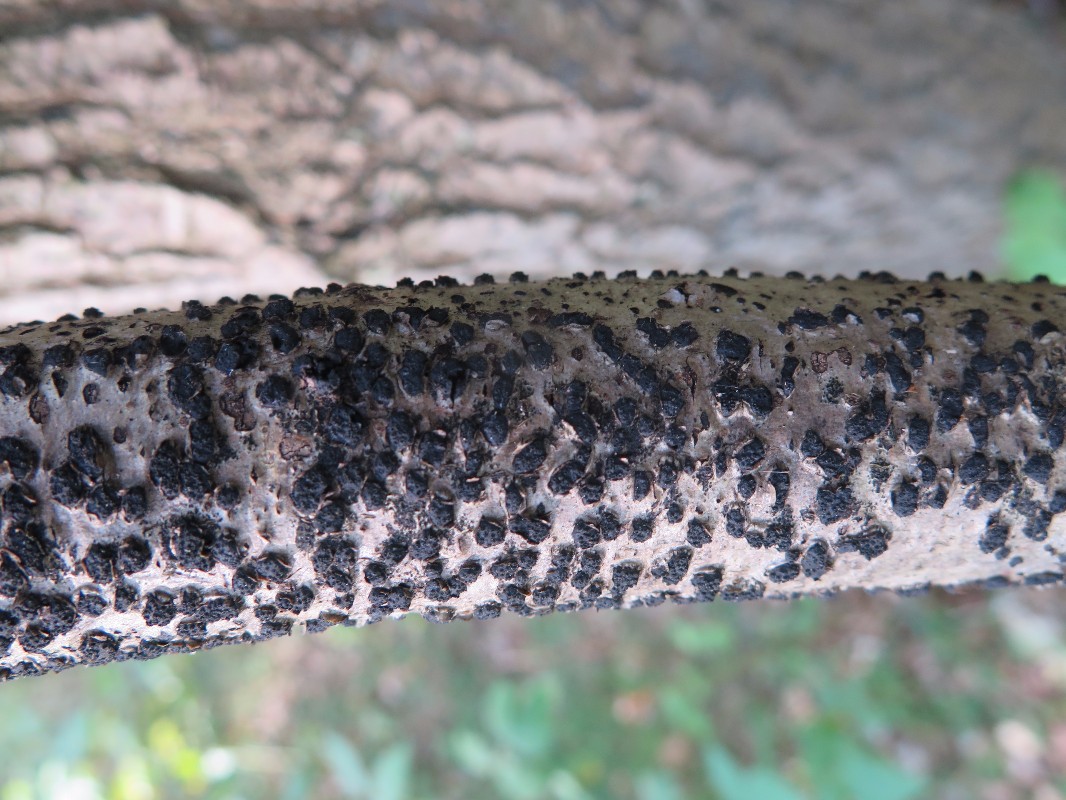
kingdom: Fungi
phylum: Ascomycota
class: Sordariomycetes
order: Xylariales
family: Diatrypaceae
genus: Diatrypella
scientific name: Diatrypella quercina
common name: ege-kulskorpe
